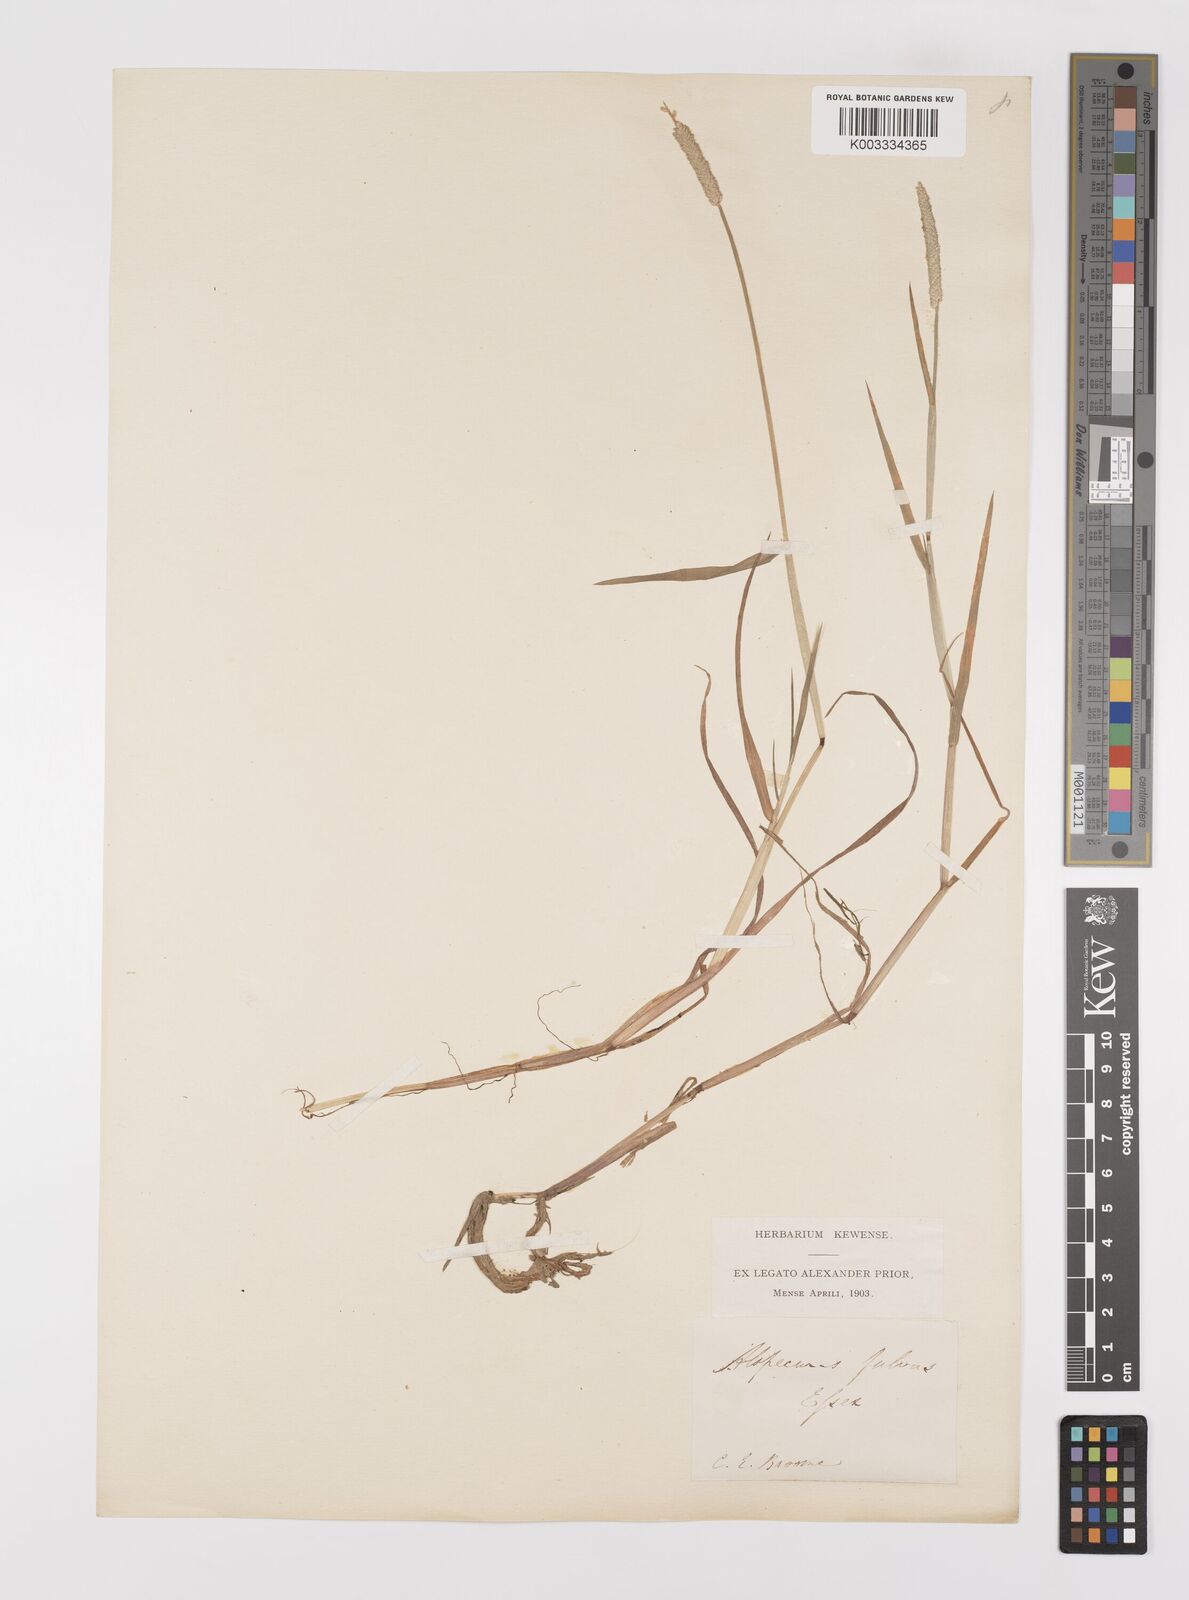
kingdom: Plantae
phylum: Tracheophyta
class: Liliopsida
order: Poales
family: Poaceae
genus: Alopecurus
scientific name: Alopecurus aequalis
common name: Orange foxtail
